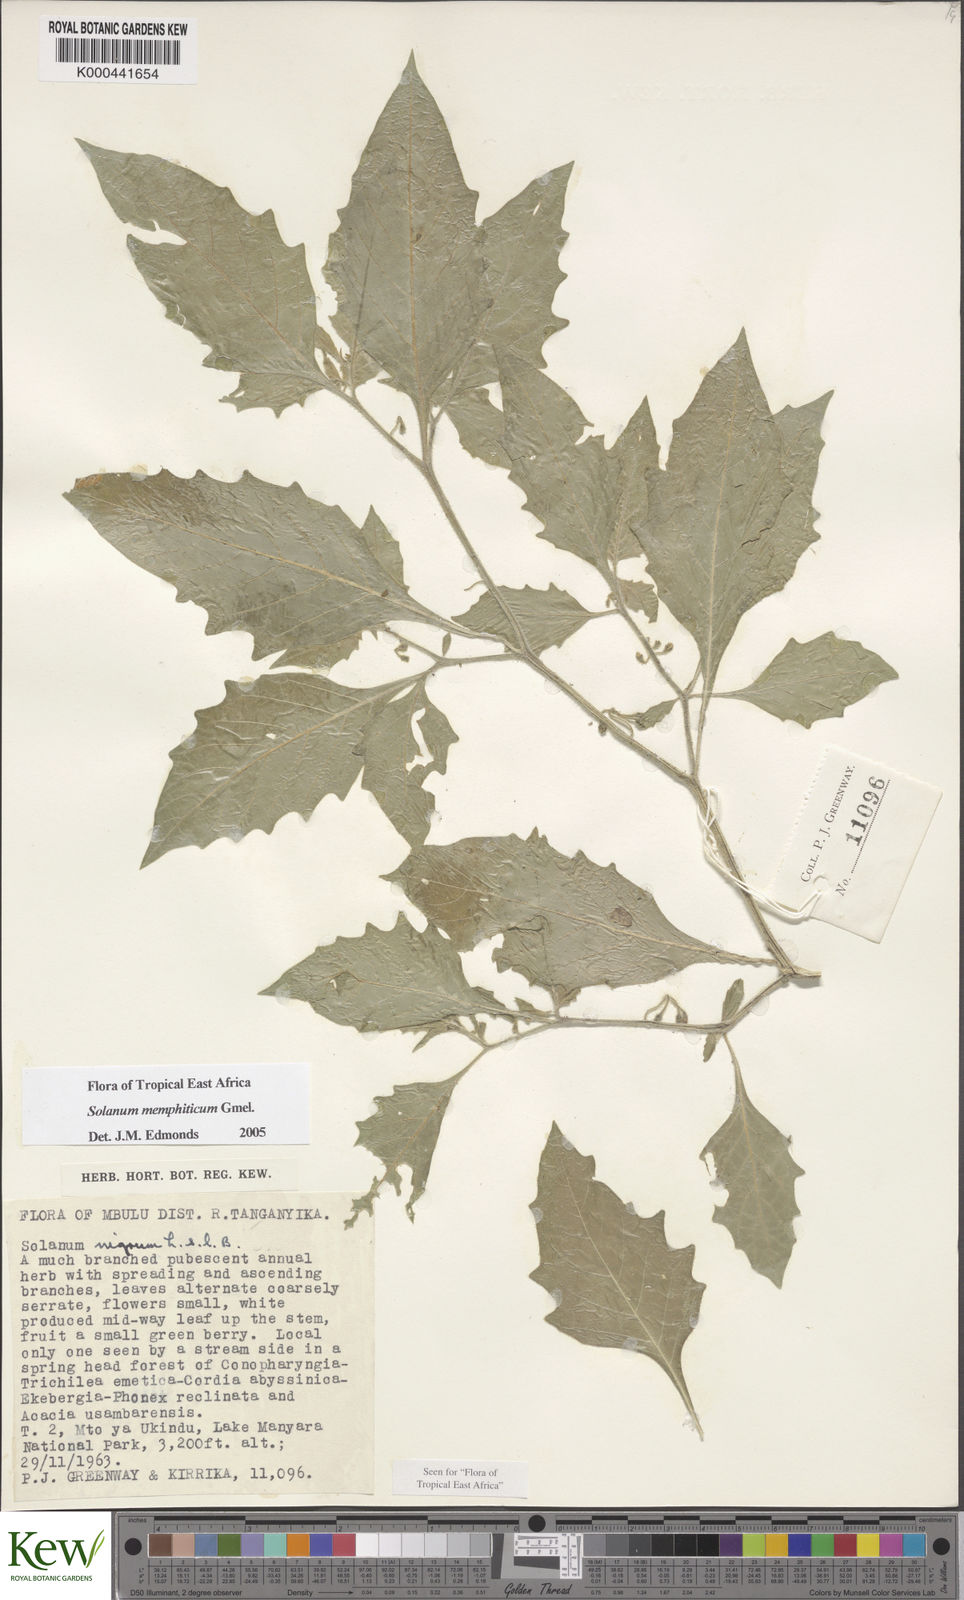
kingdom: Plantae
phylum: Tracheophyta
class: Magnoliopsida
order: Solanales
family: Solanaceae
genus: Solanum
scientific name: Solanum memphiticum
